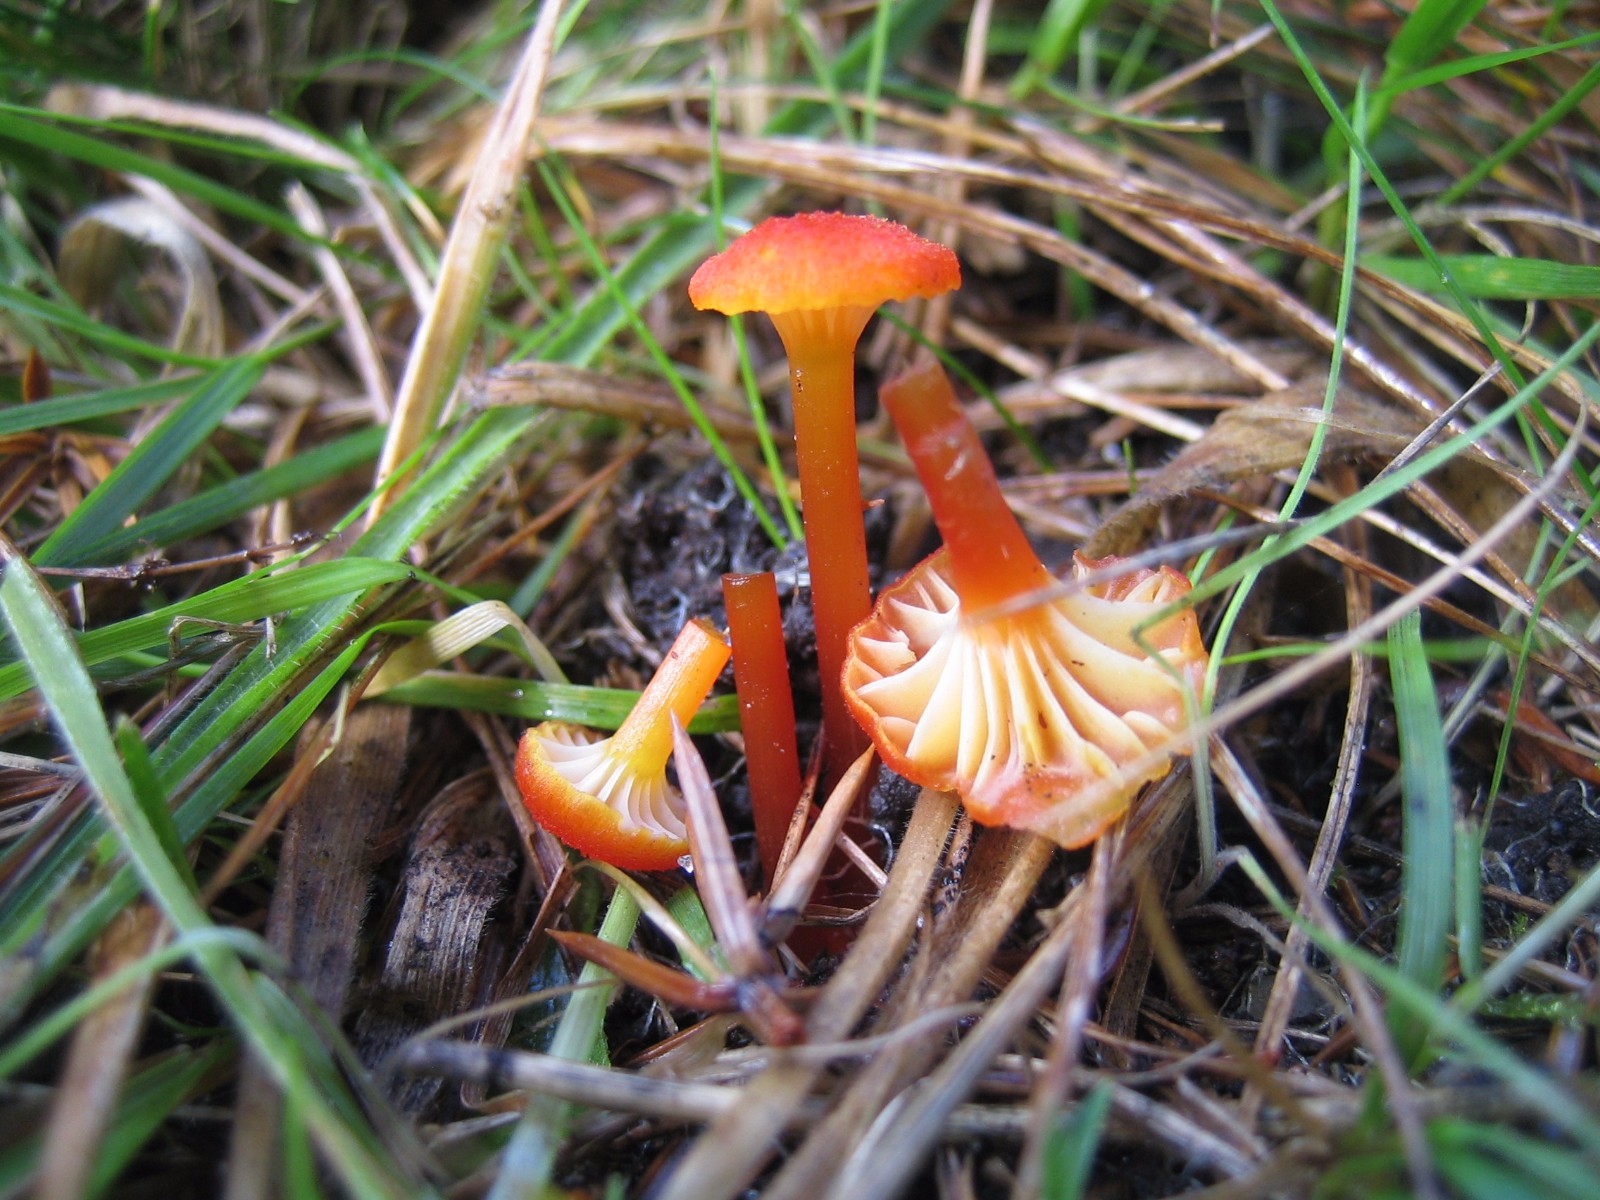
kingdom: Fungi
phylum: Basidiomycota
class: Agaricomycetes
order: Agaricales
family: Hygrophoraceae
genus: Hygrocybe
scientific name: Hygrocybe cantharellus
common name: kantarel-vokshat
